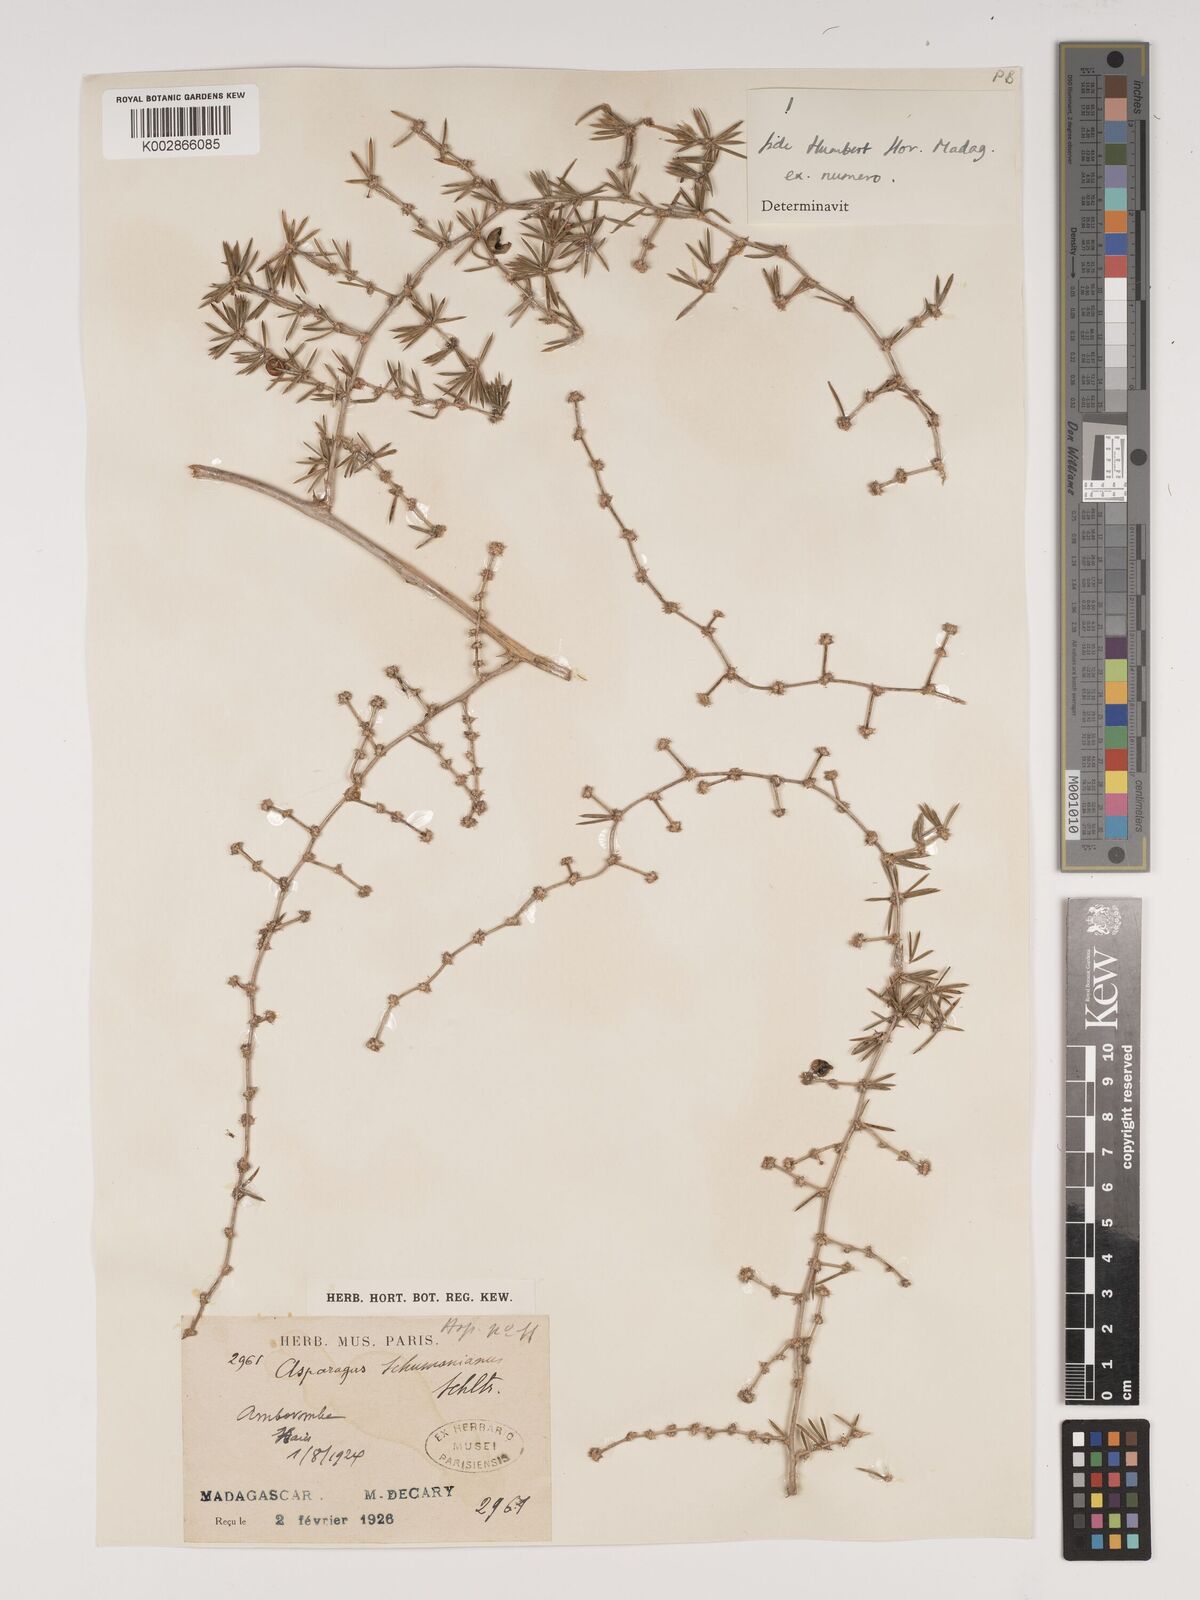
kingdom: Plantae
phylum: Tracheophyta
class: Liliopsida
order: Asparagales
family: Asparagaceae
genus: Asparagus
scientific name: Asparagus schumanianus
